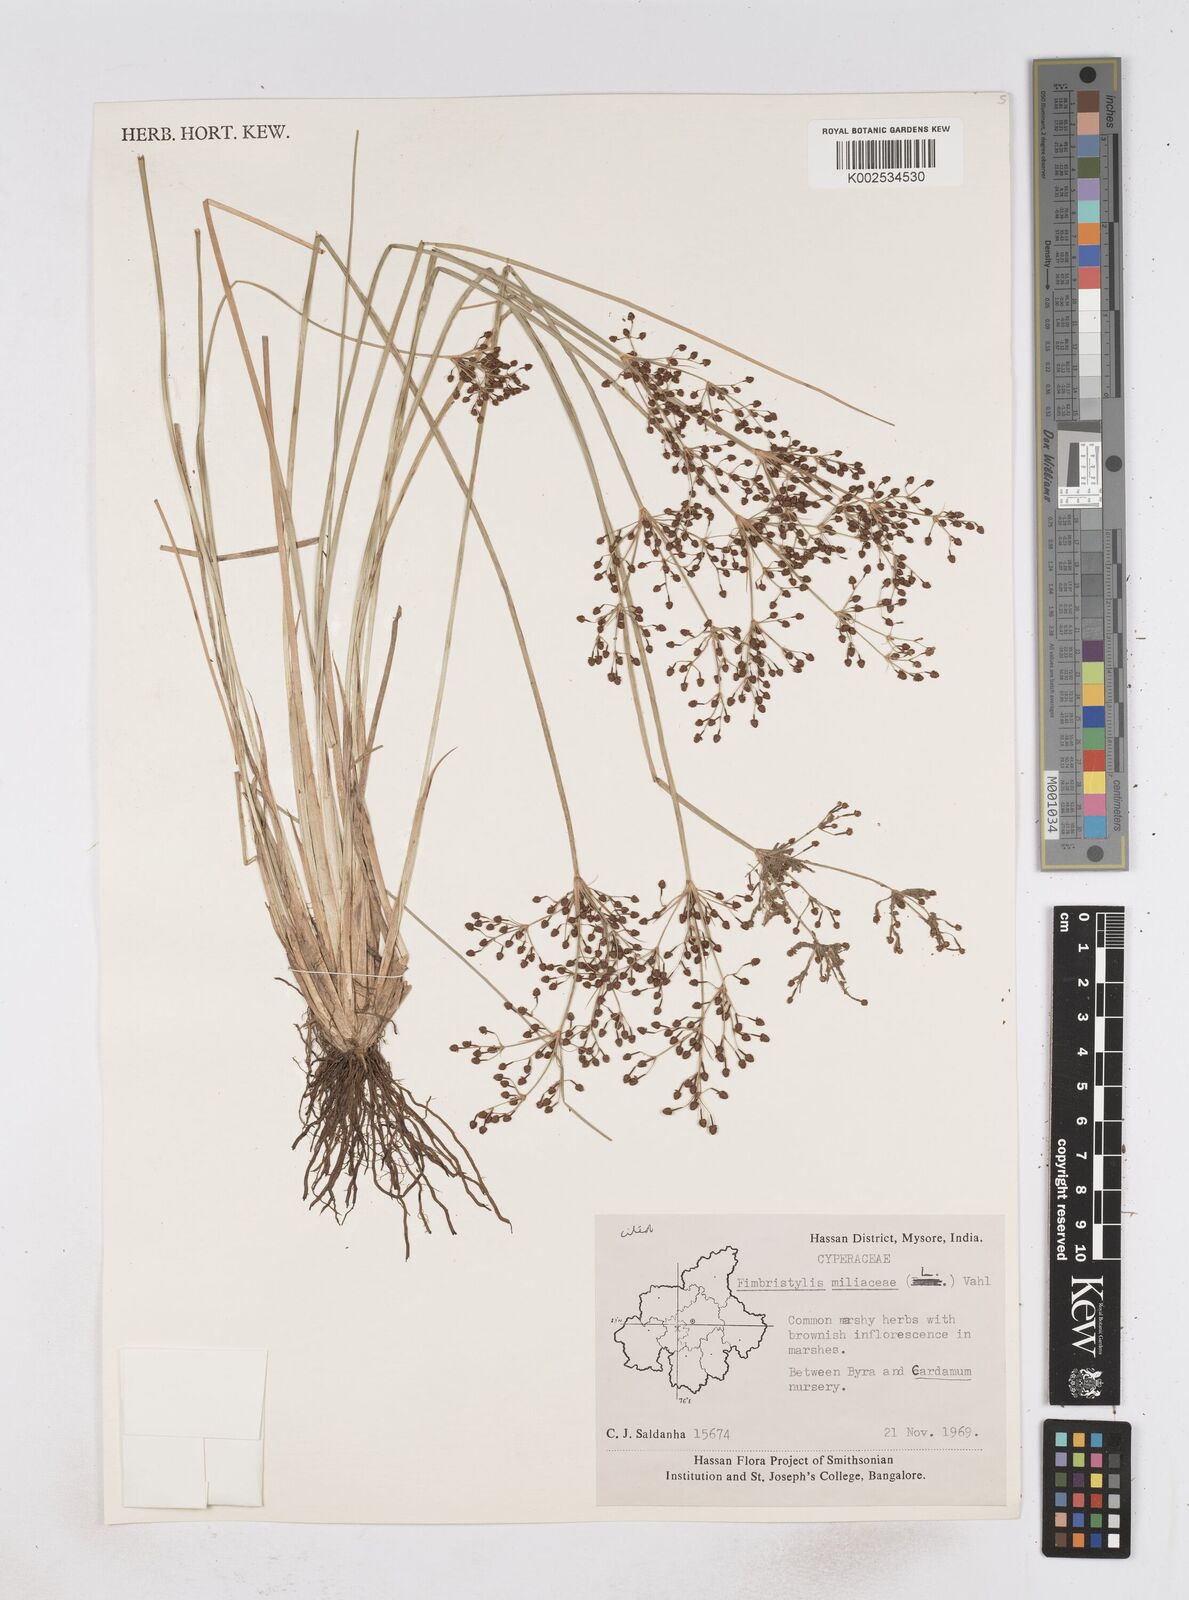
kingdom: Plantae
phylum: Tracheophyta
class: Liliopsida
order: Poales
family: Cyperaceae
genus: Fimbristylis
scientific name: Fimbristylis quinquangularis
